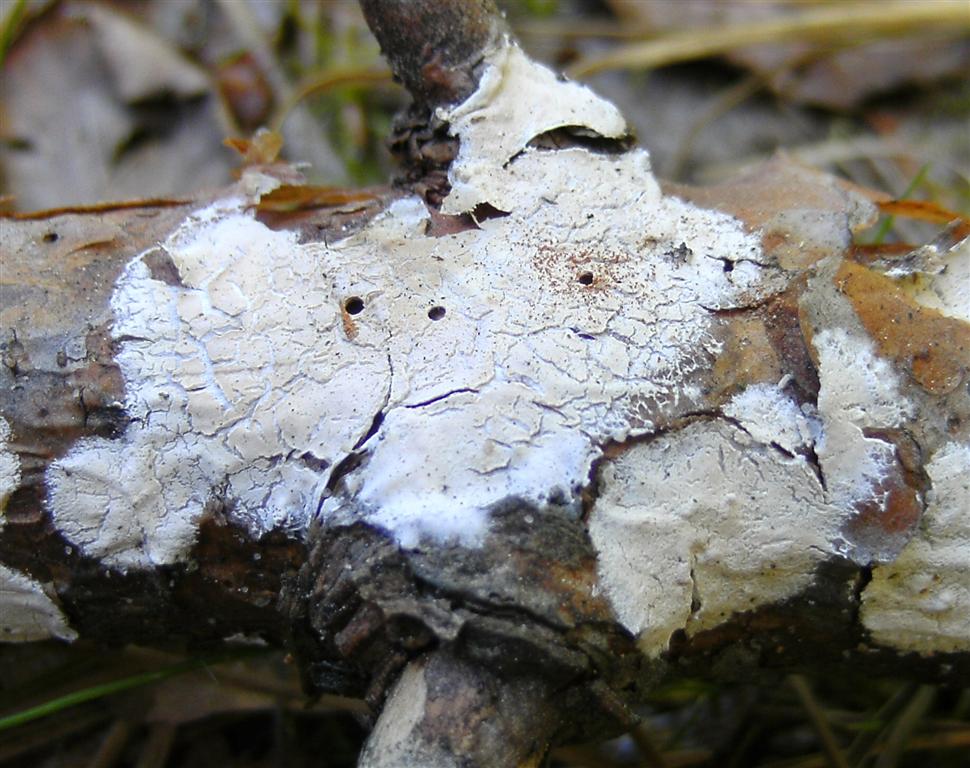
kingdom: Fungi
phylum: Basidiomycota
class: Agaricomycetes
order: Agaricales
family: Physalacriaceae
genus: Cylindrobasidium
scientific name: Cylindrobasidium evolvens
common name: sprækkehinde
